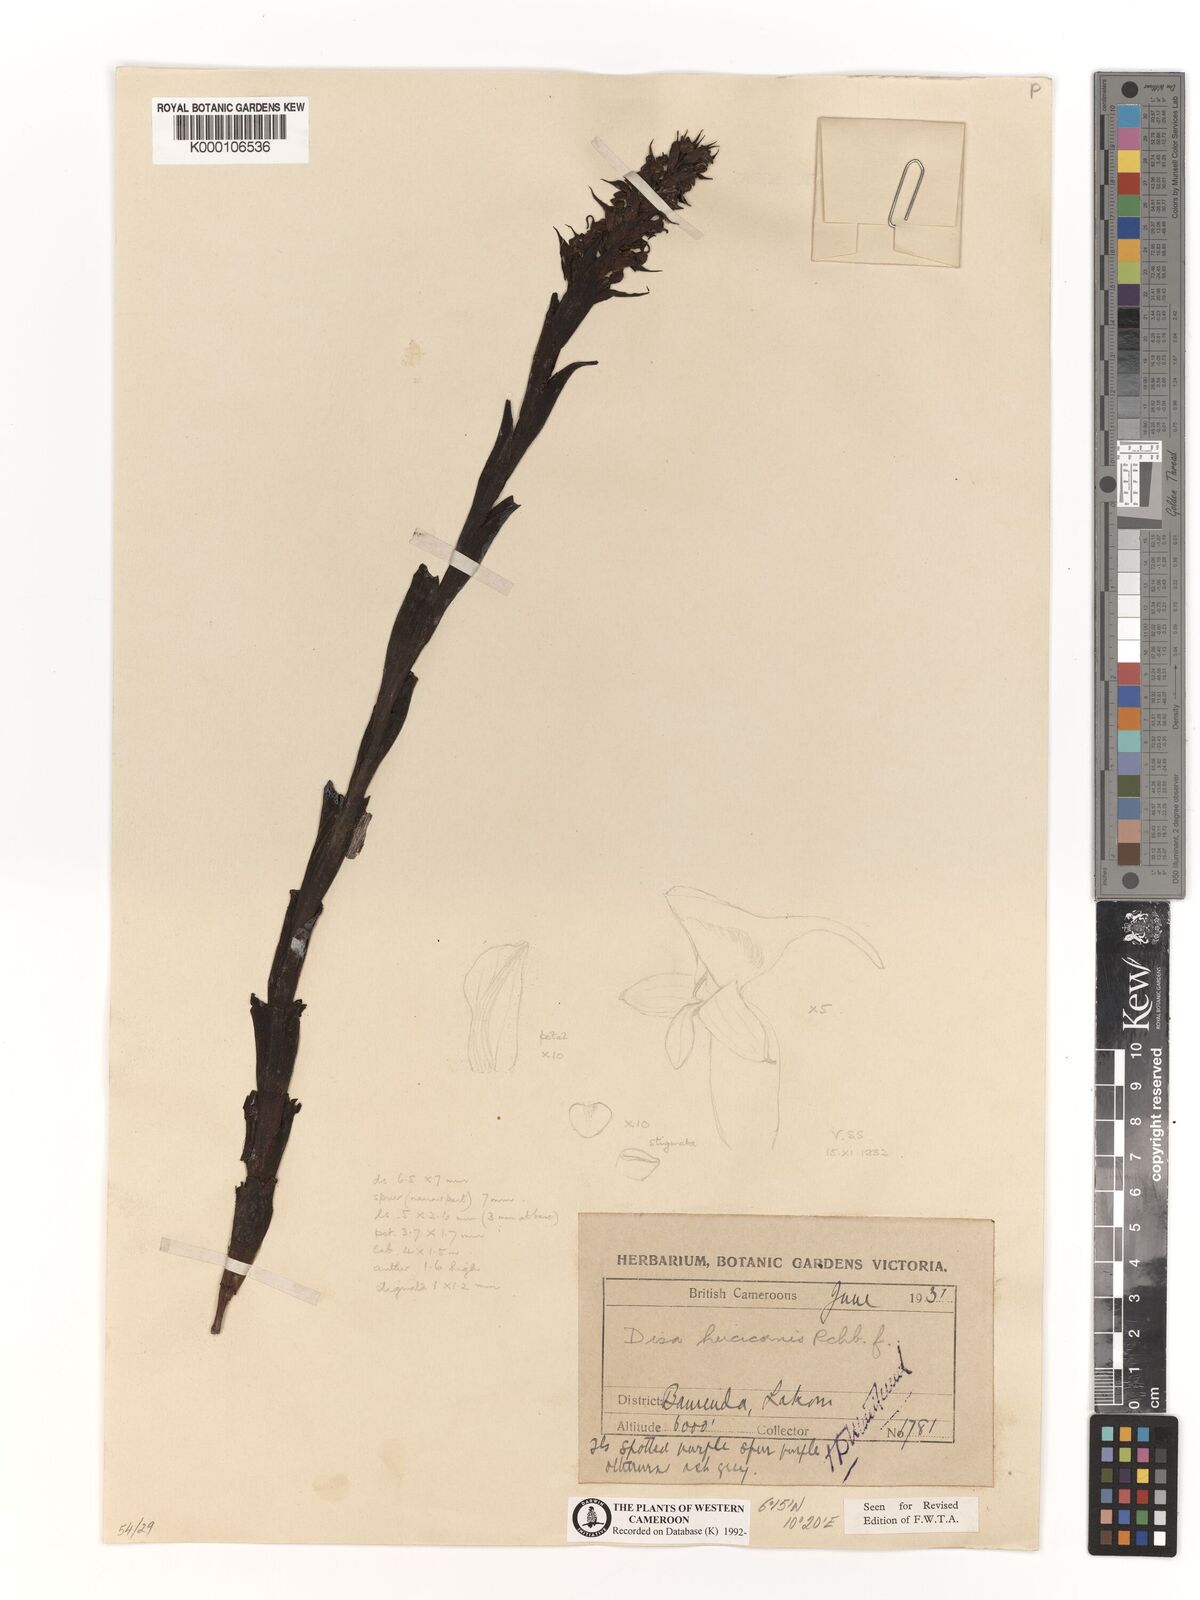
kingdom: Plantae
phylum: Tracheophyta
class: Liliopsida
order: Asparagales
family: Orchidaceae
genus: Disa
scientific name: Disa hircicornis
